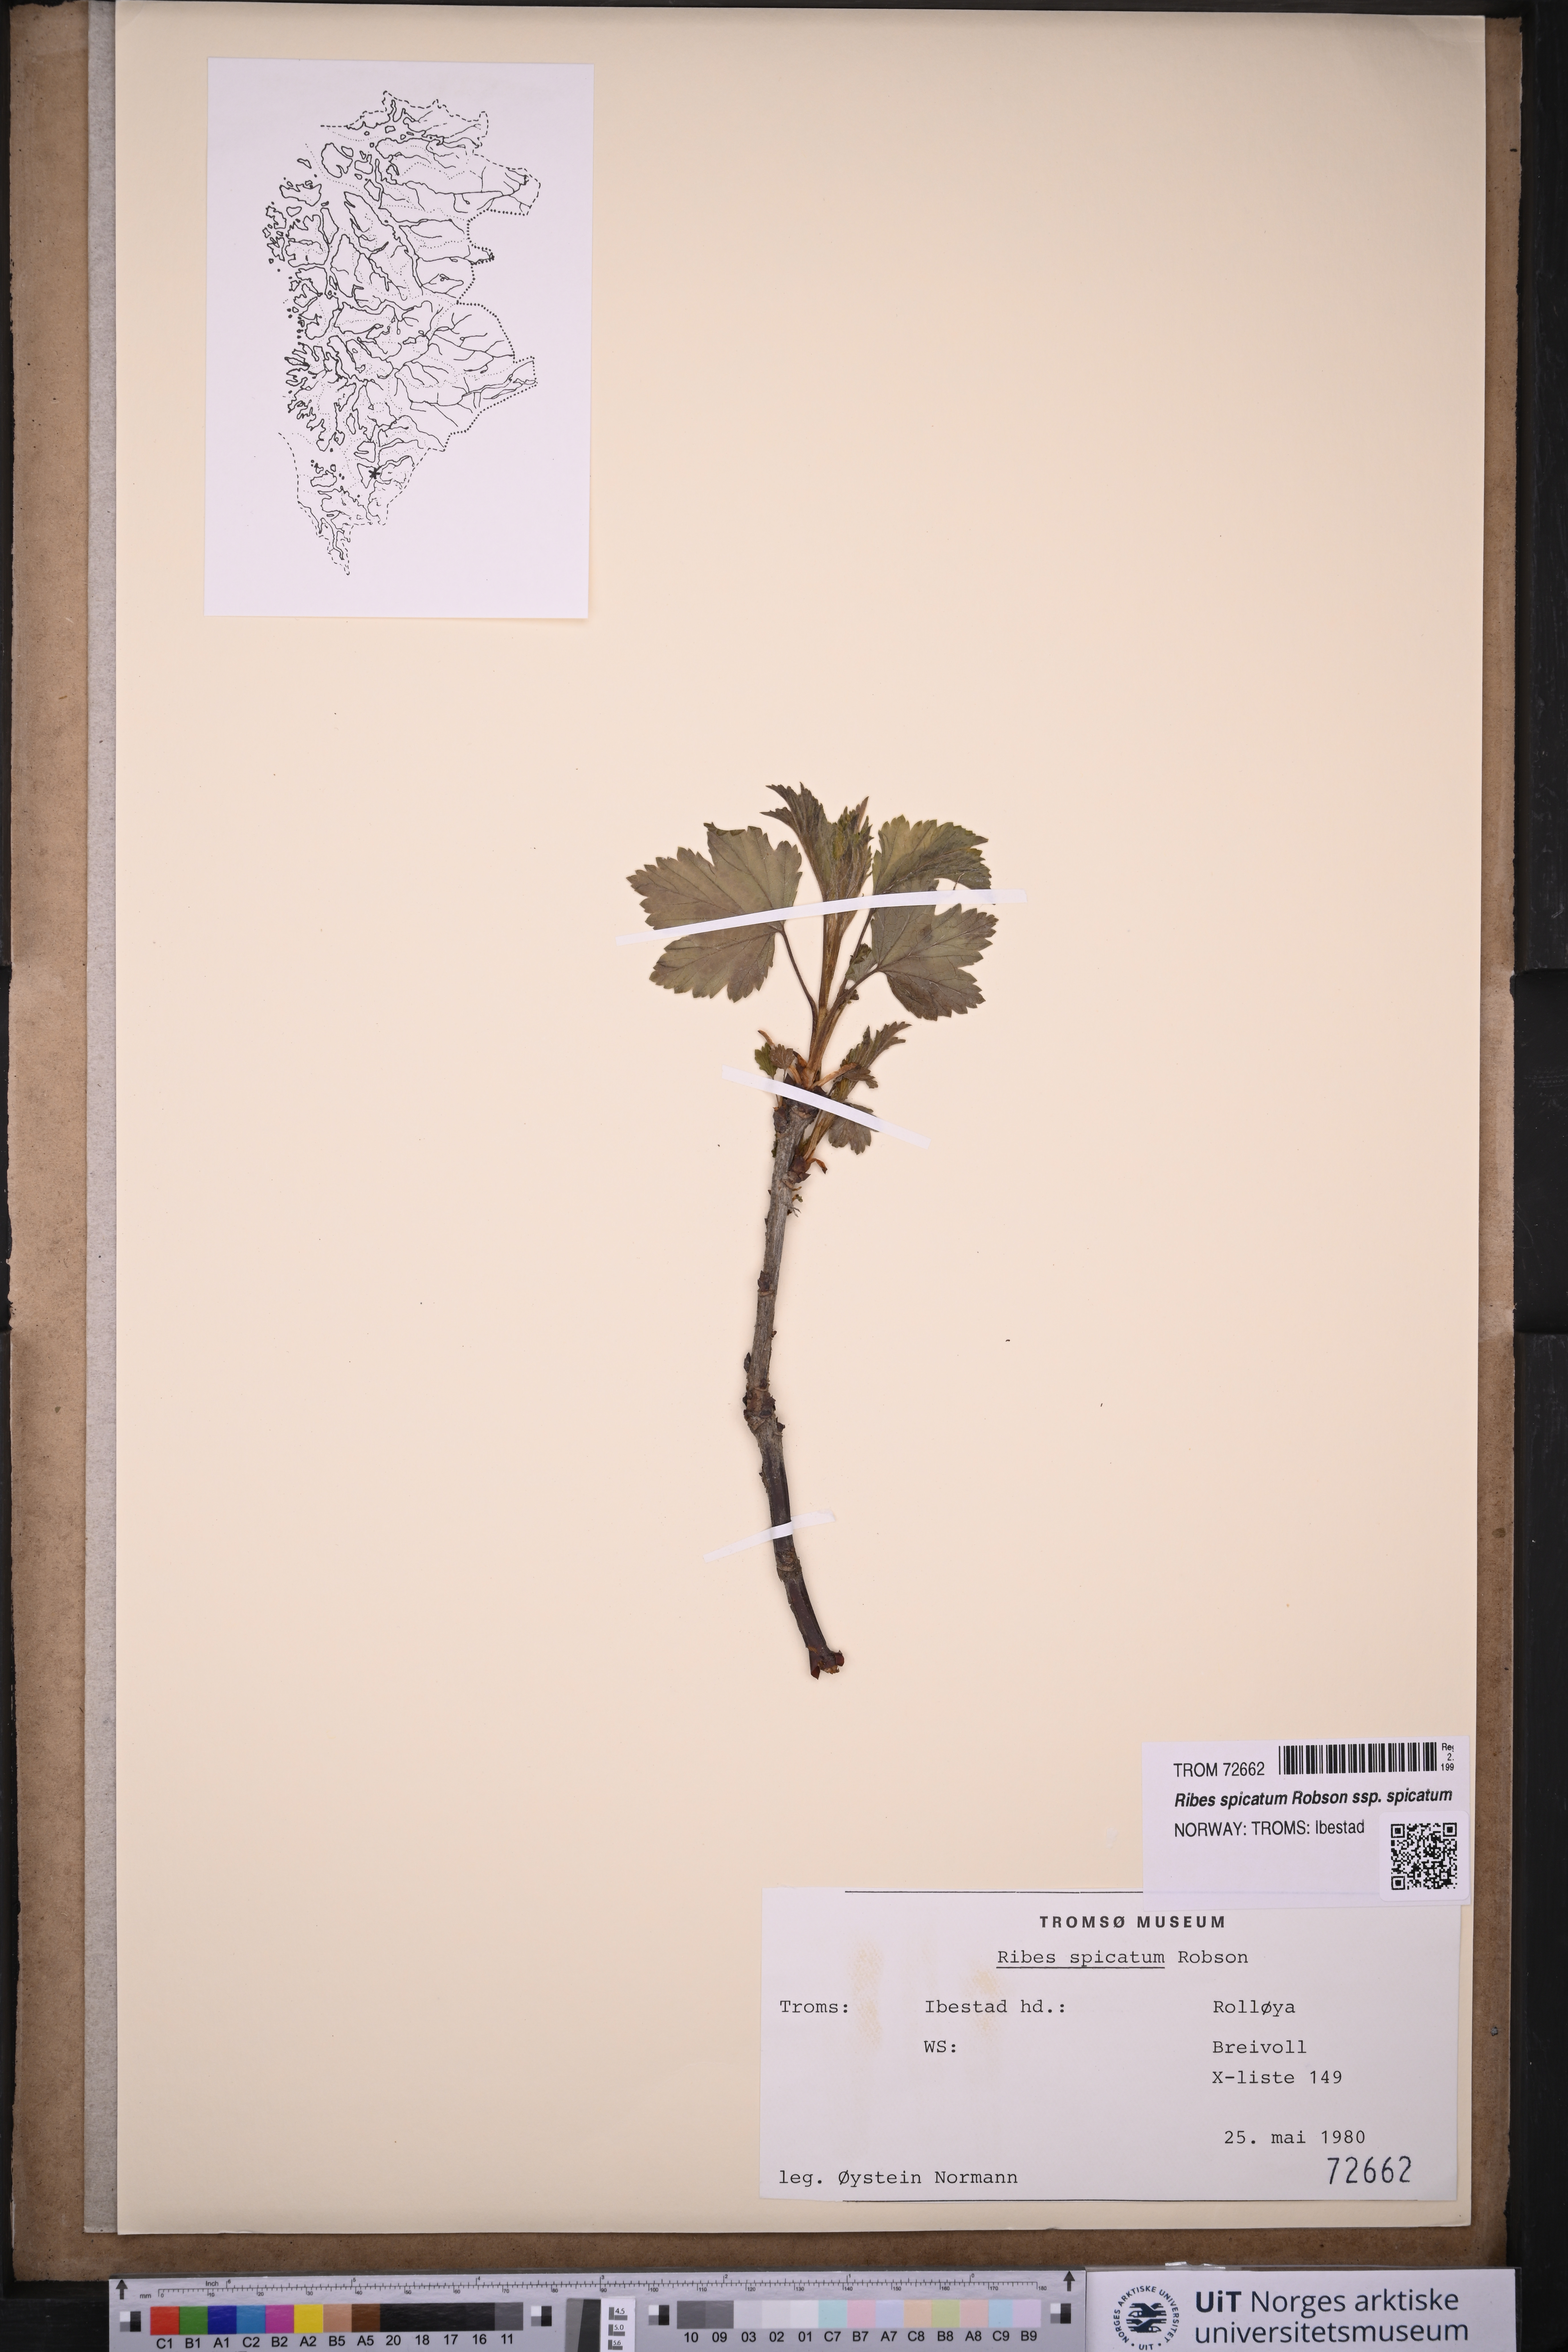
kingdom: Plantae
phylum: Tracheophyta
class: Magnoliopsida
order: Saxifragales
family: Grossulariaceae
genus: Ribes
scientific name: Ribes spicatum
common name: Downy currant
